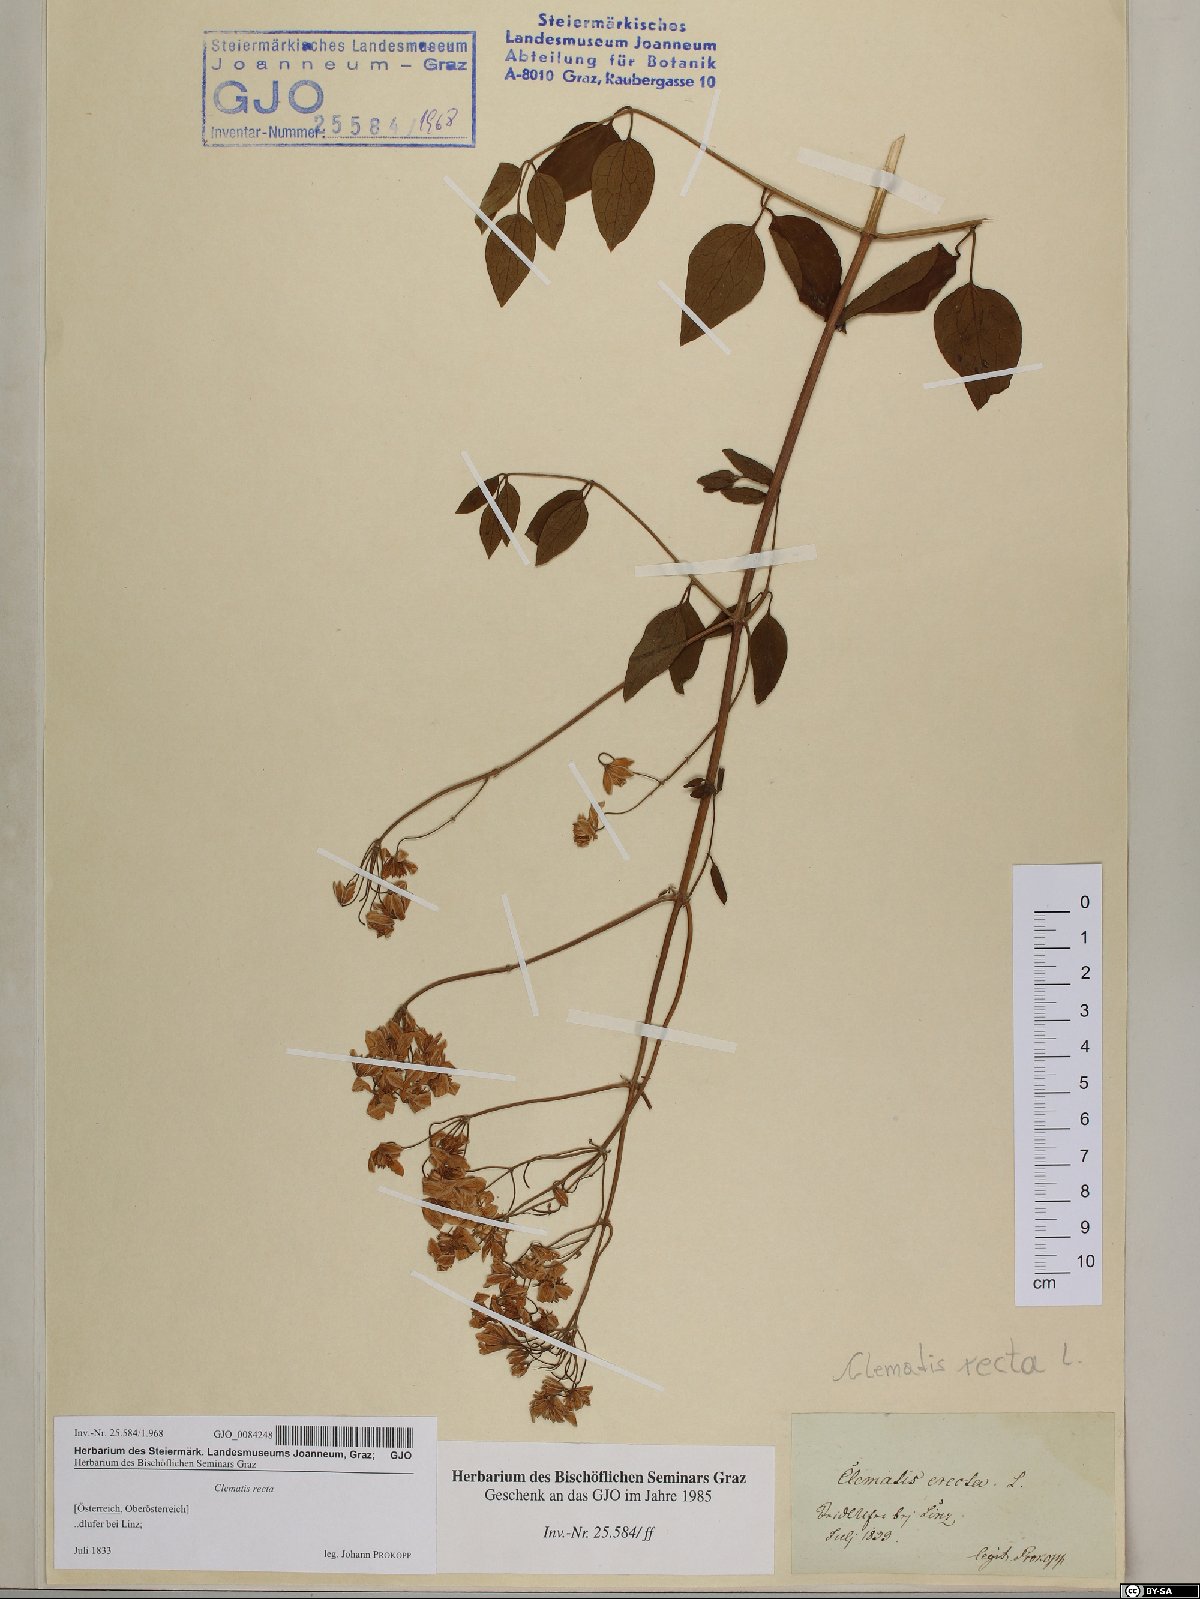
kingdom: Plantae
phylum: Tracheophyta
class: Magnoliopsida
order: Ranunculales
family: Ranunculaceae
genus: Clematis
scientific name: Clematis recta
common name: Ground clematis
